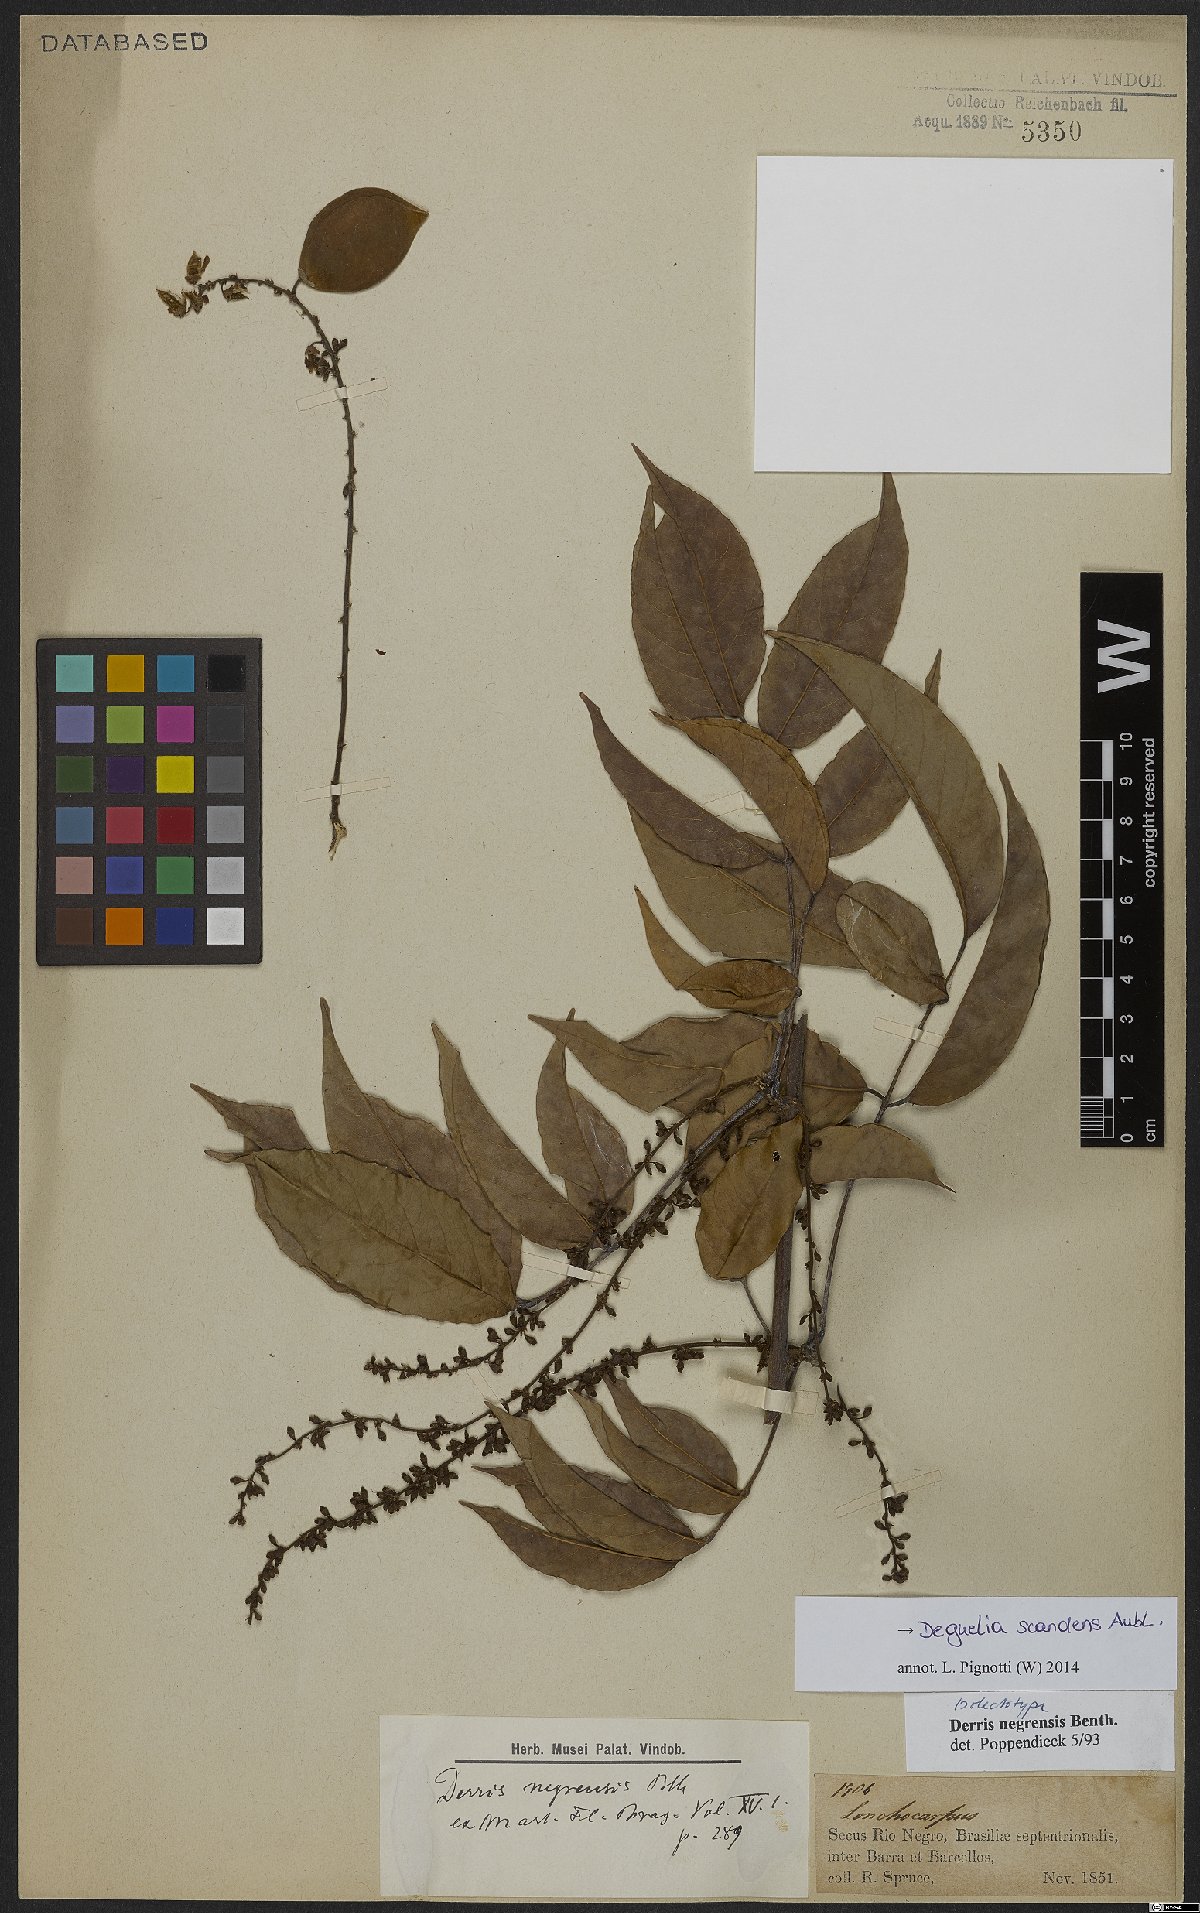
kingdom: Plantae
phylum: Tracheophyta
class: Magnoliopsida
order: Fabales
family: Fabaceae
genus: Deguelia
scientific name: Deguelia scandens
